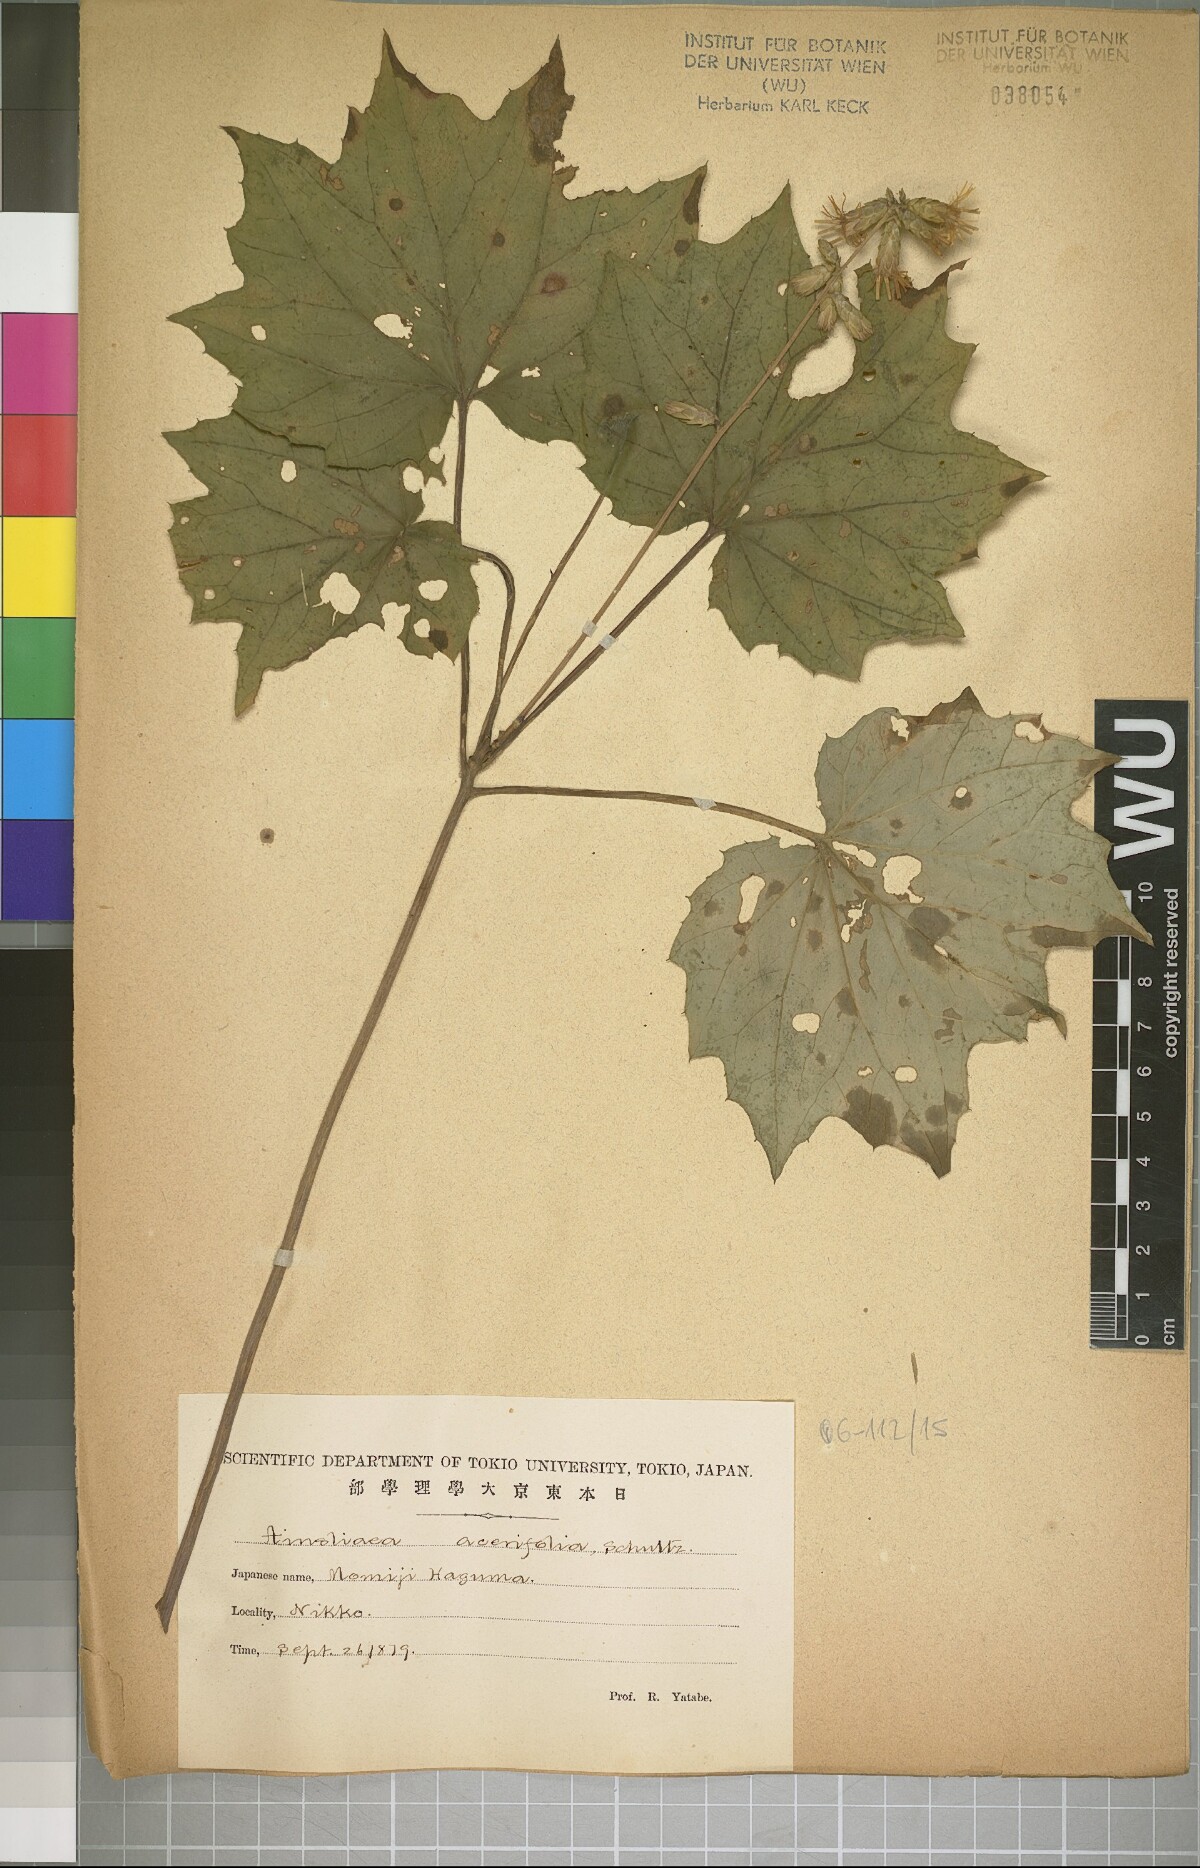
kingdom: Plantae
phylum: Tracheophyta
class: Magnoliopsida
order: Asterales
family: Asteraceae
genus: Ainsliaea
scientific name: Ainsliaea acerifolia
